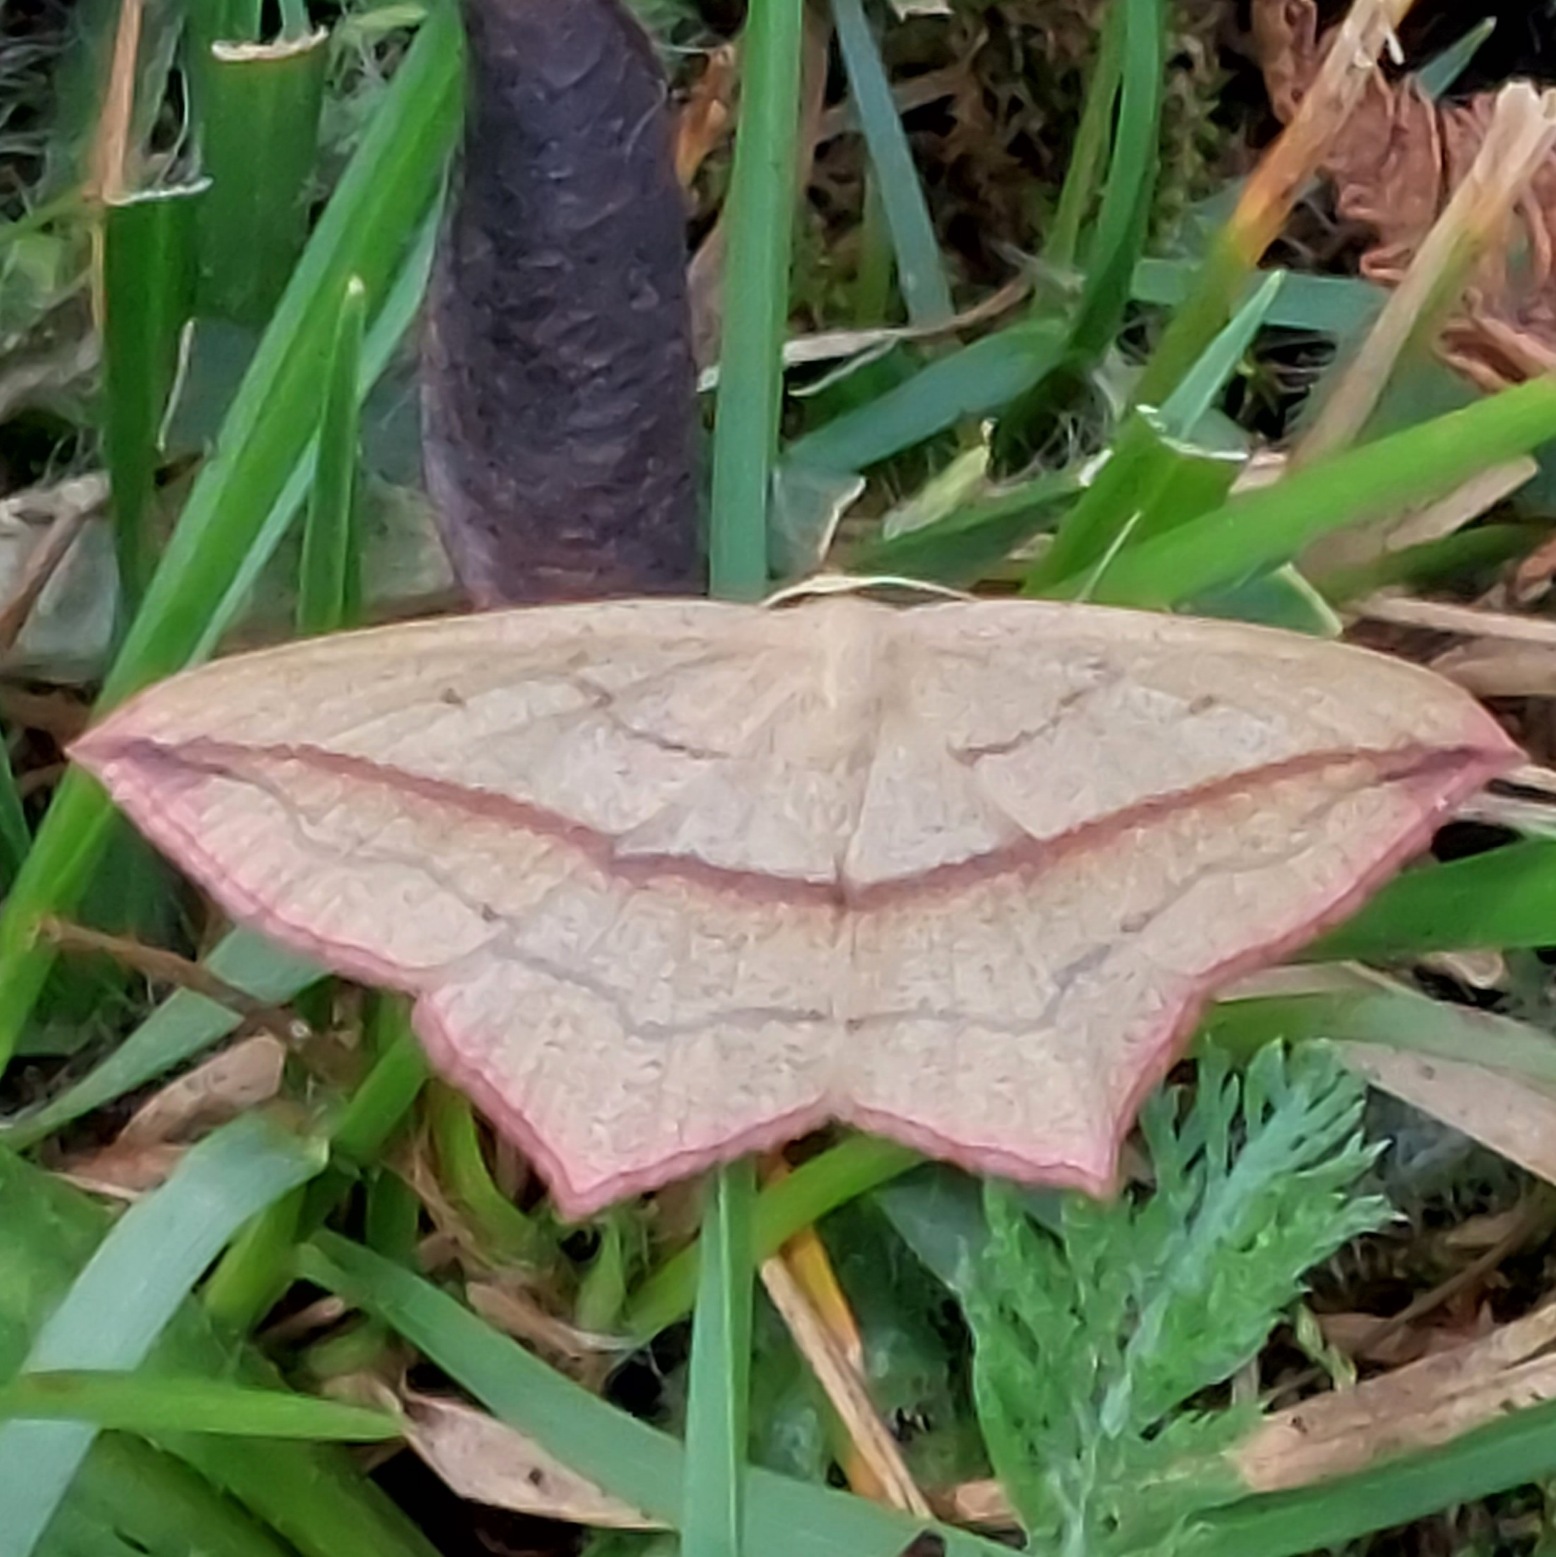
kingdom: Animalia
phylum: Arthropoda
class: Insecta
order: Lepidoptera
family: Geometridae
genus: Timandra
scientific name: Timandra comae
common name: Gul syremåler
